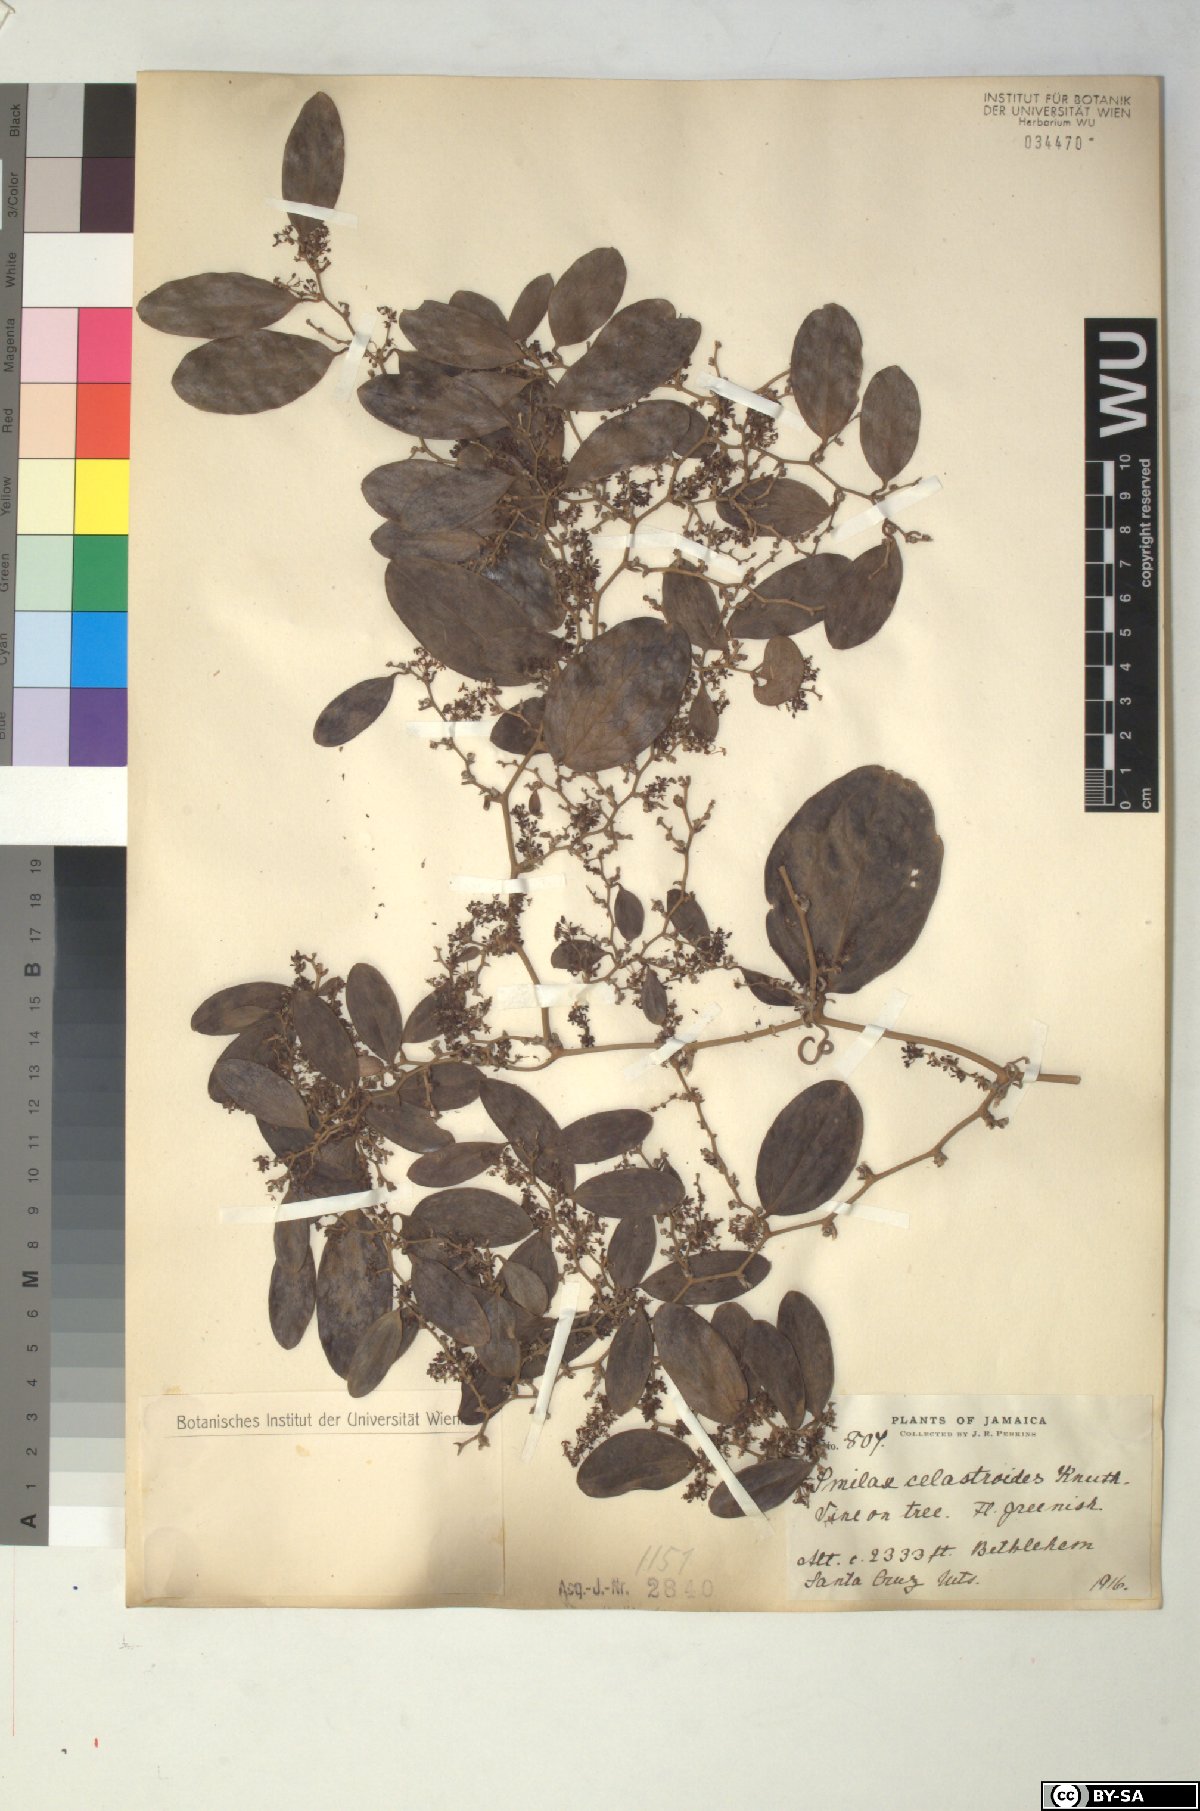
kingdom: Plantae
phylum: Tracheophyta
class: Liliopsida
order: Liliales
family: Smilacaceae
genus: Smilax
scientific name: Smilax canellifolia
